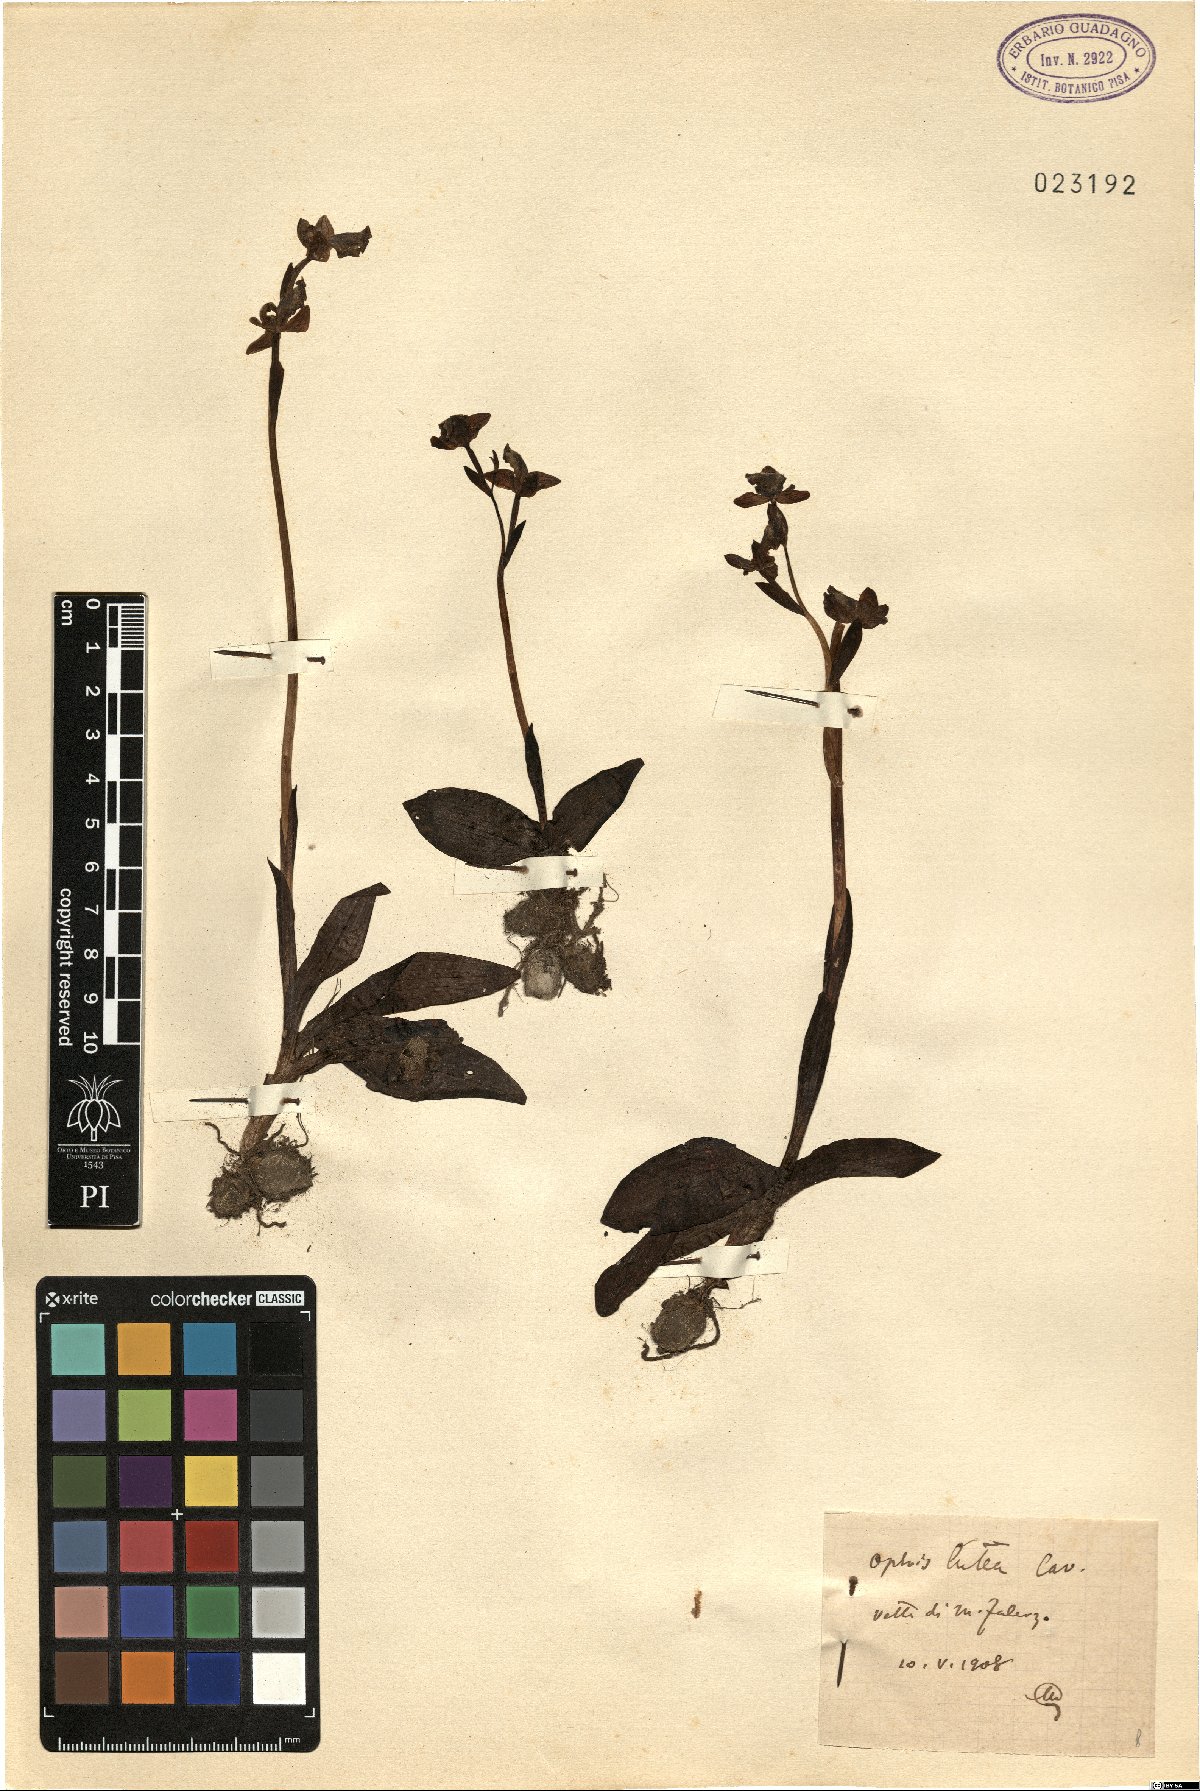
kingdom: Plantae
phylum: Tracheophyta
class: Liliopsida
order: Asparagales
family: Orchidaceae
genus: Ophrys
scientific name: Ophrys lutea
